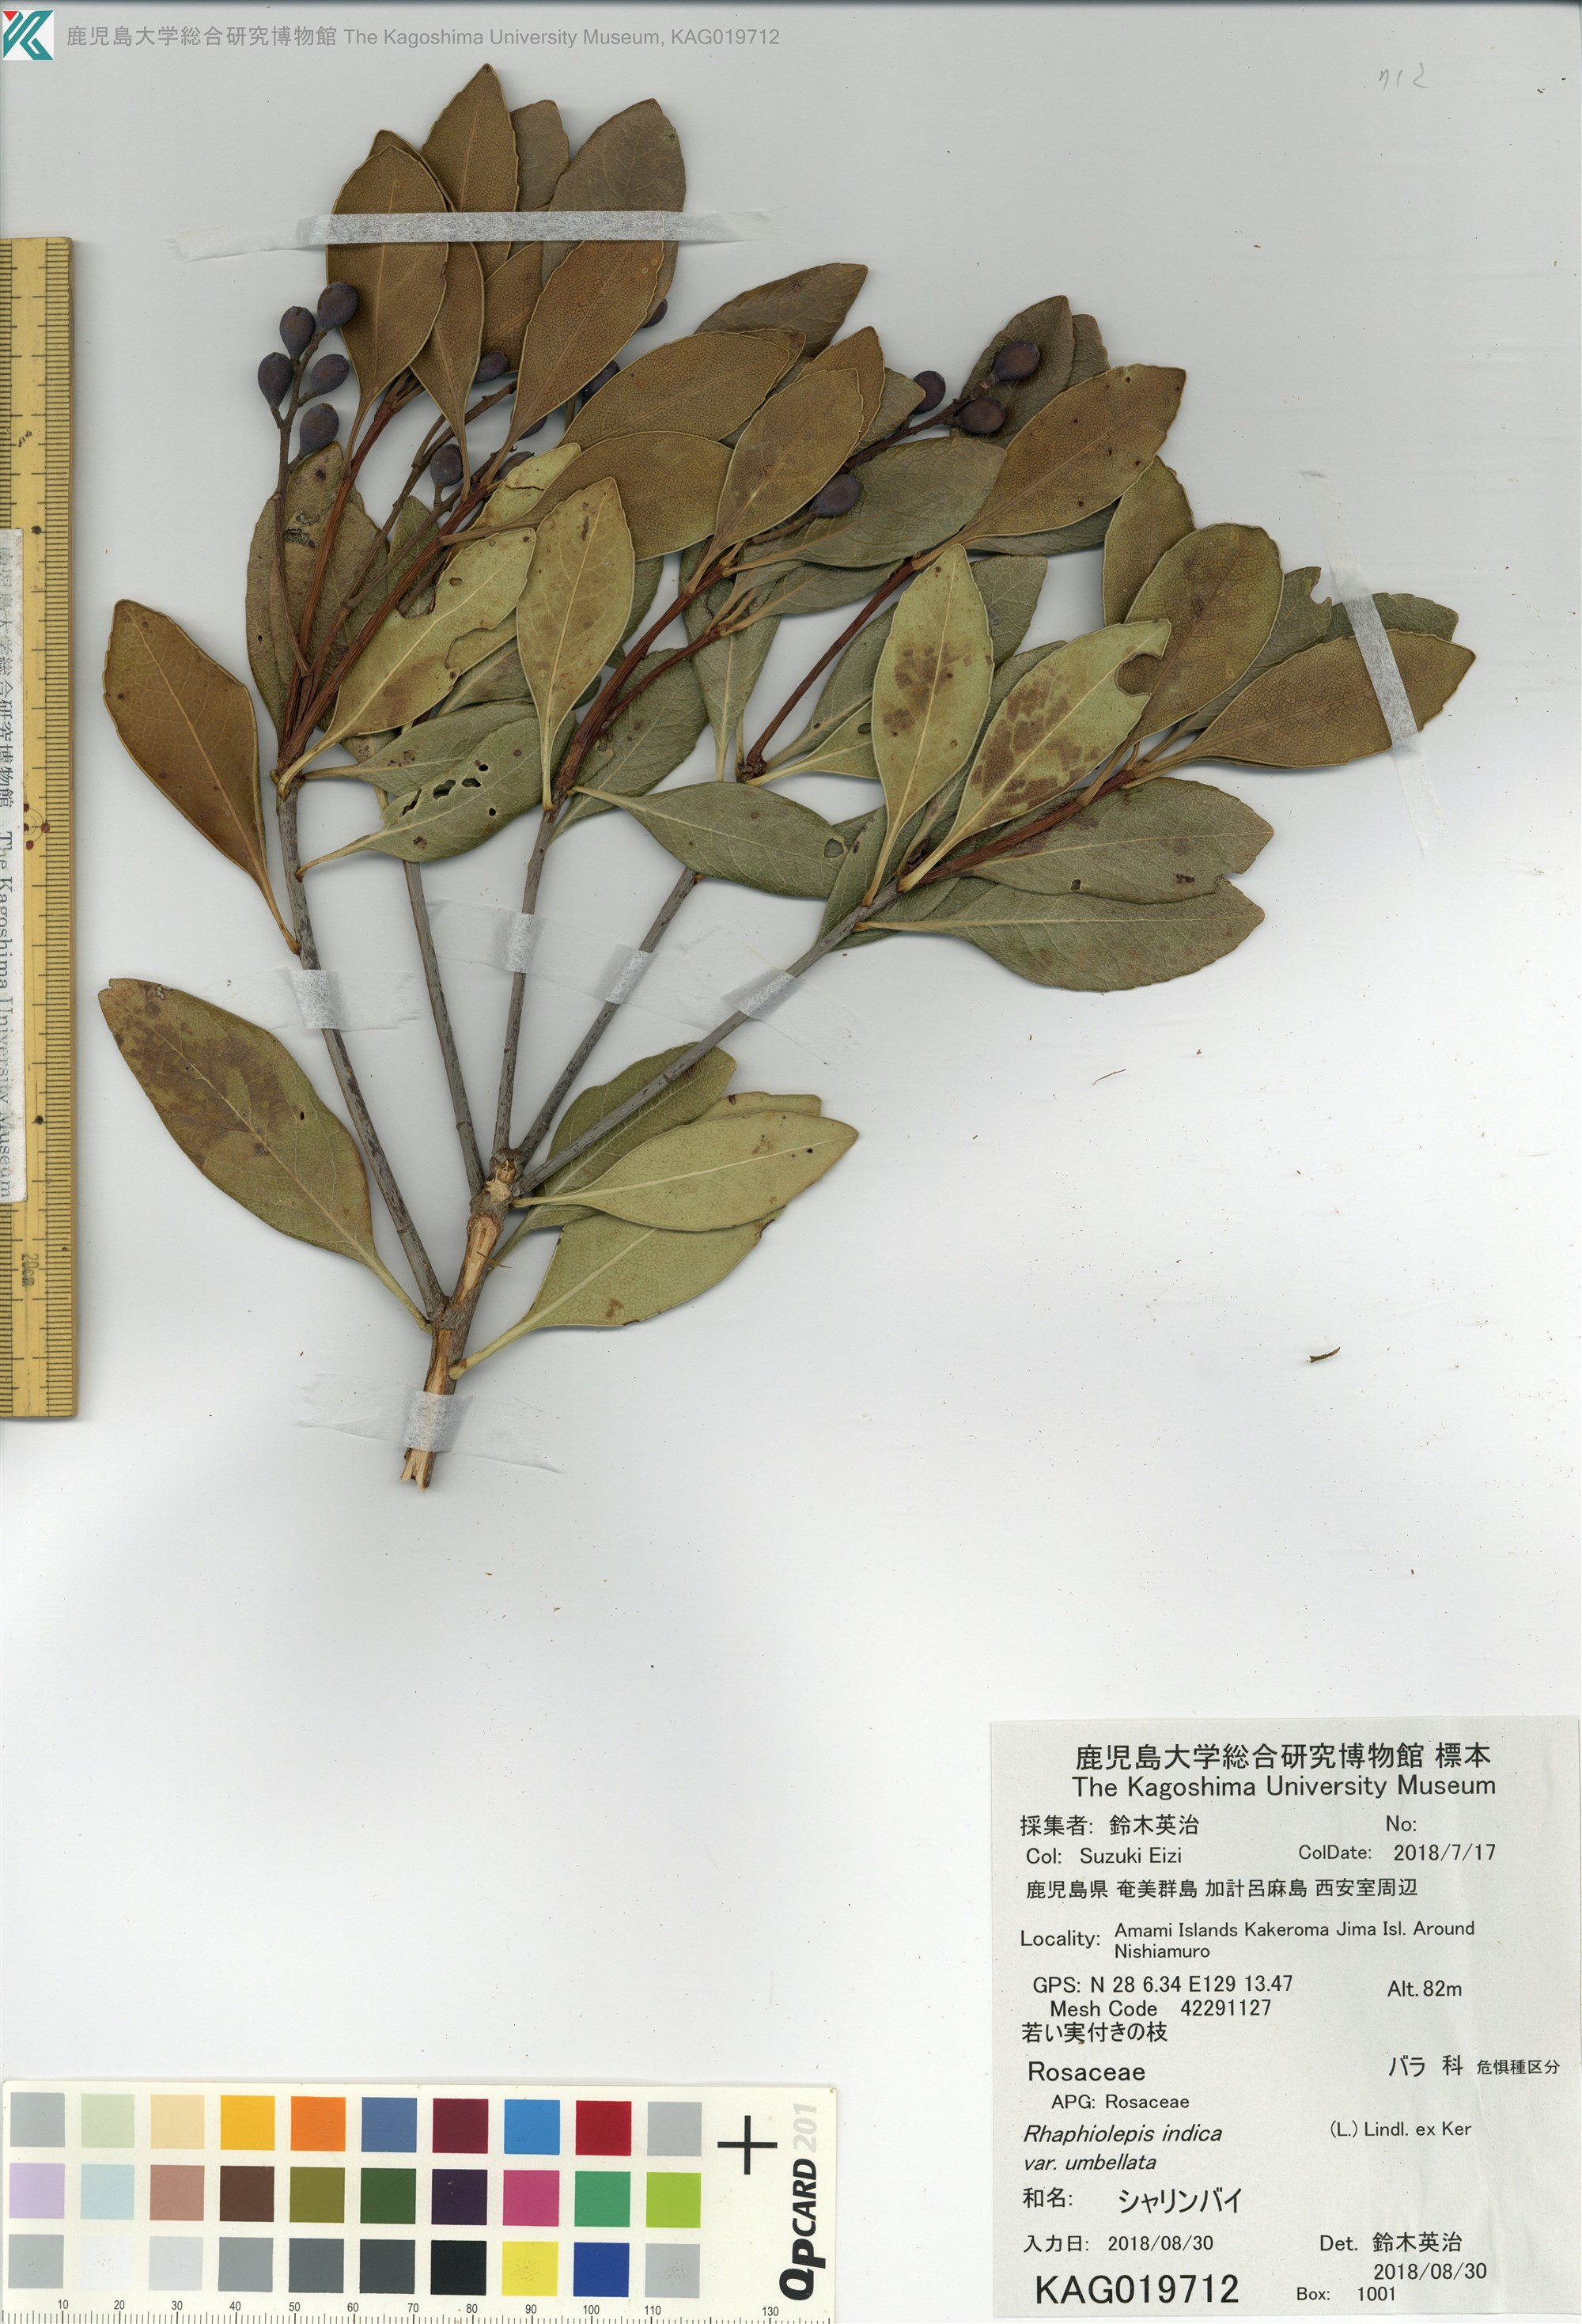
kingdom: Plantae
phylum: Tracheophyta
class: Magnoliopsida
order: Rosales
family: Rosaceae
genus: Rhaphiolepis
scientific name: Rhaphiolepis umbellata
